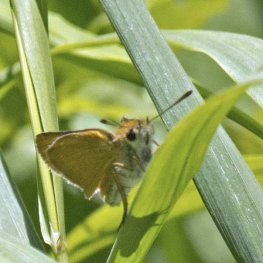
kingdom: Animalia
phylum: Arthropoda
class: Insecta
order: Lepidoptera
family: Hesperiidae
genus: Thymelicus
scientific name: Thymelicus lineola
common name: European Skipper
